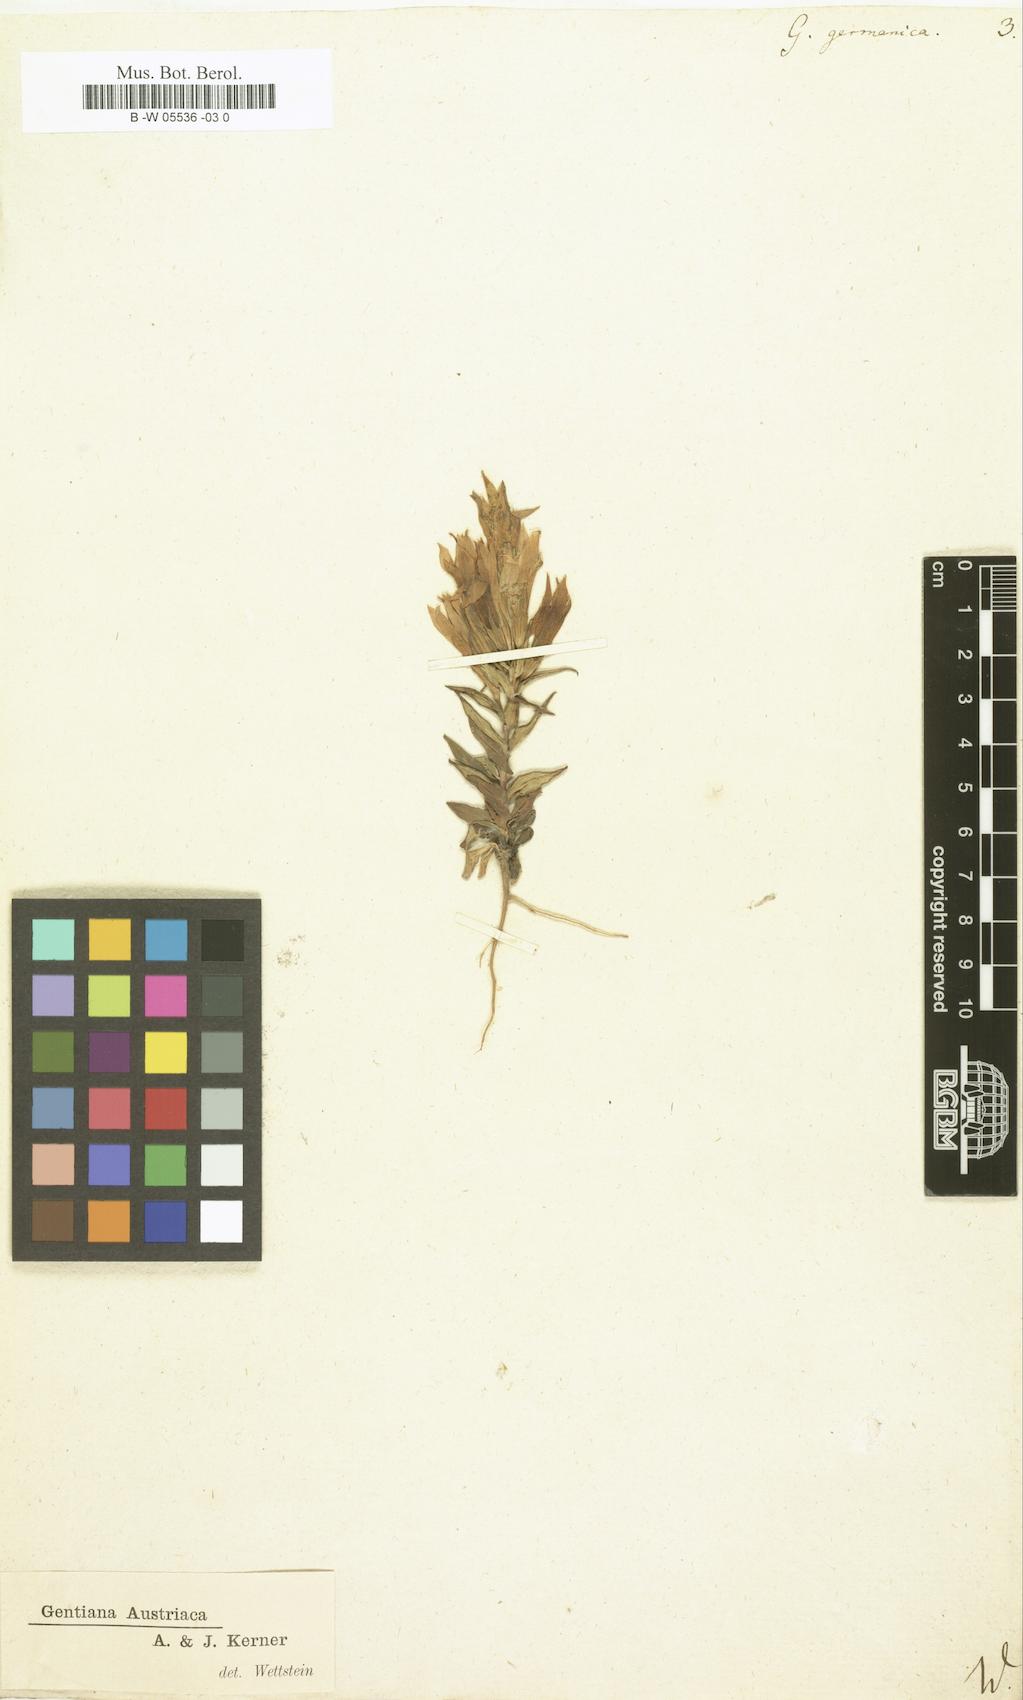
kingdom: Plantae
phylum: Tracheophyta
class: Magnoliopsida
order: Gentianales
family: Gentianaceae
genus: Gentianella
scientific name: Gentianella
